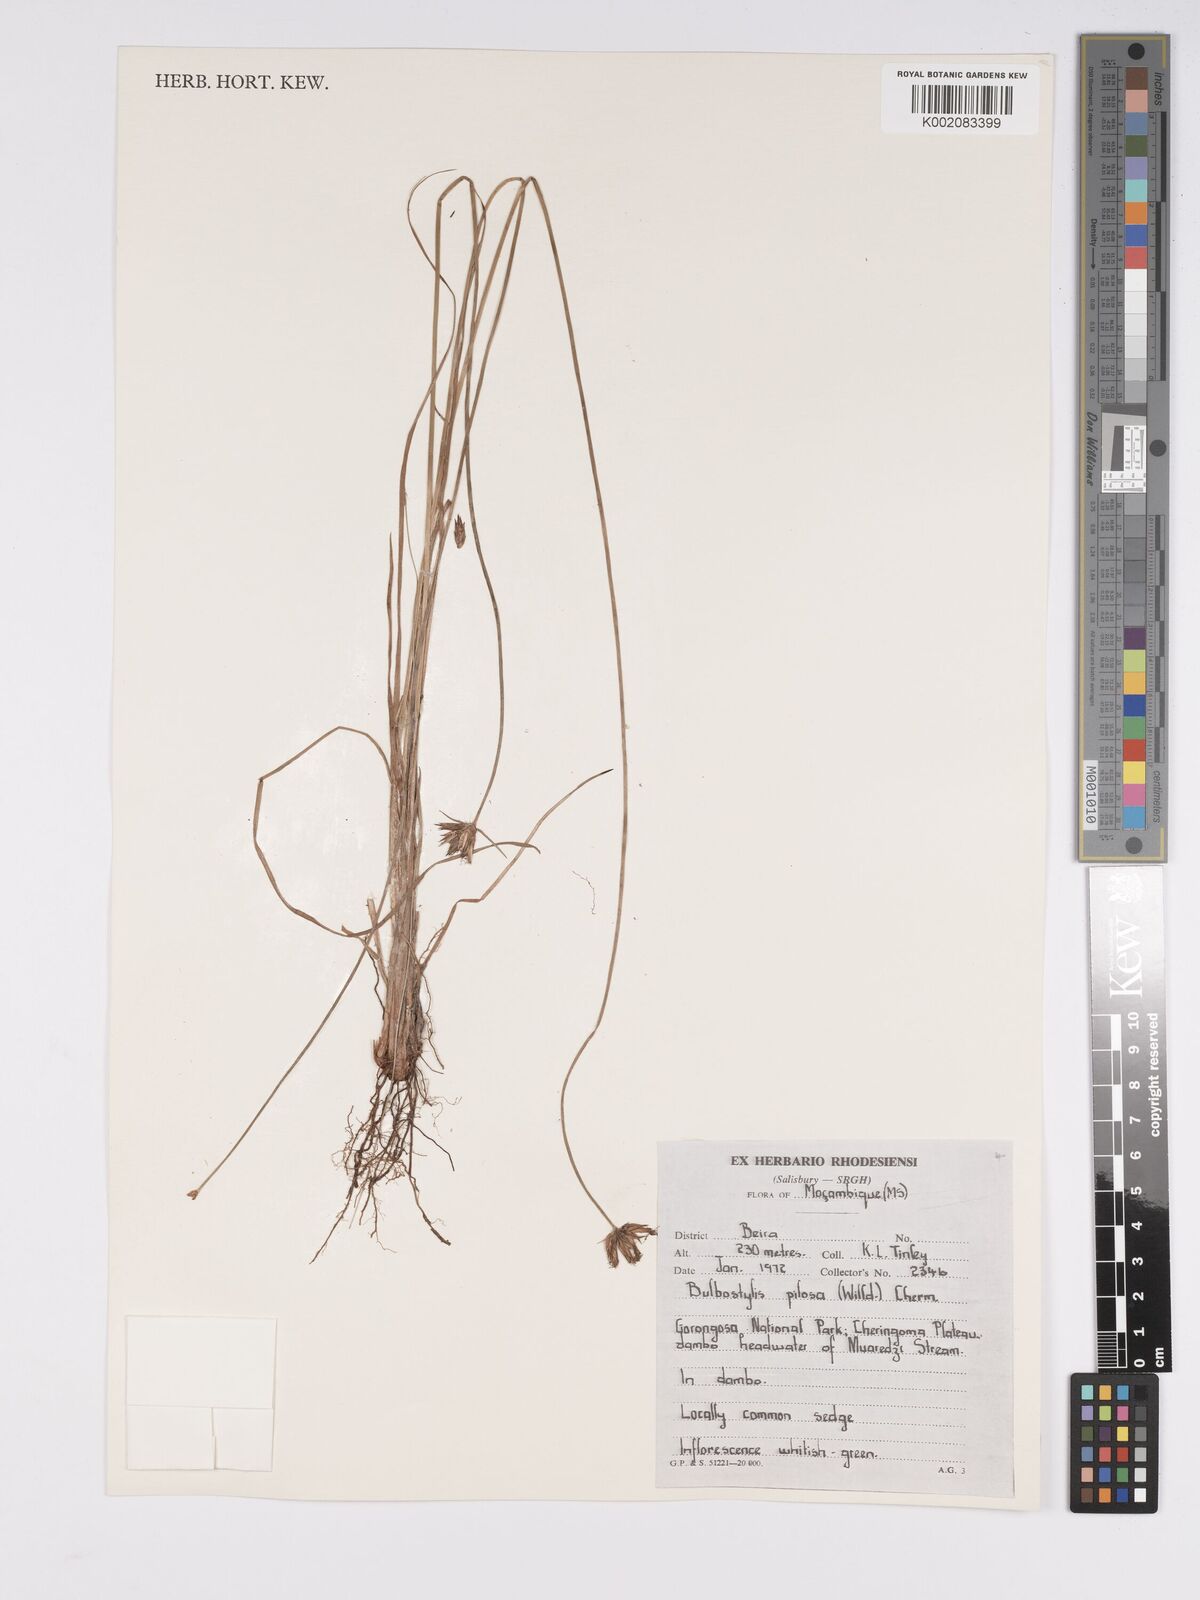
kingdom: Plantae
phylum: Tracheophyta
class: Liliopsida
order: Poales
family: Cyperaceae
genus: Bulbostylis
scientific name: Bulbostylis pilosa
